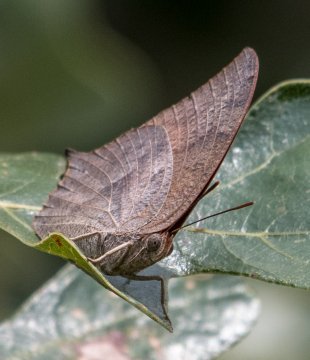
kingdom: Animalia
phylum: Arthropoda
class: Insecta
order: Lepidoptera
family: Nymphalidae
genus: Anaea
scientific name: Anaea andria
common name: Goatweed Leafwing
